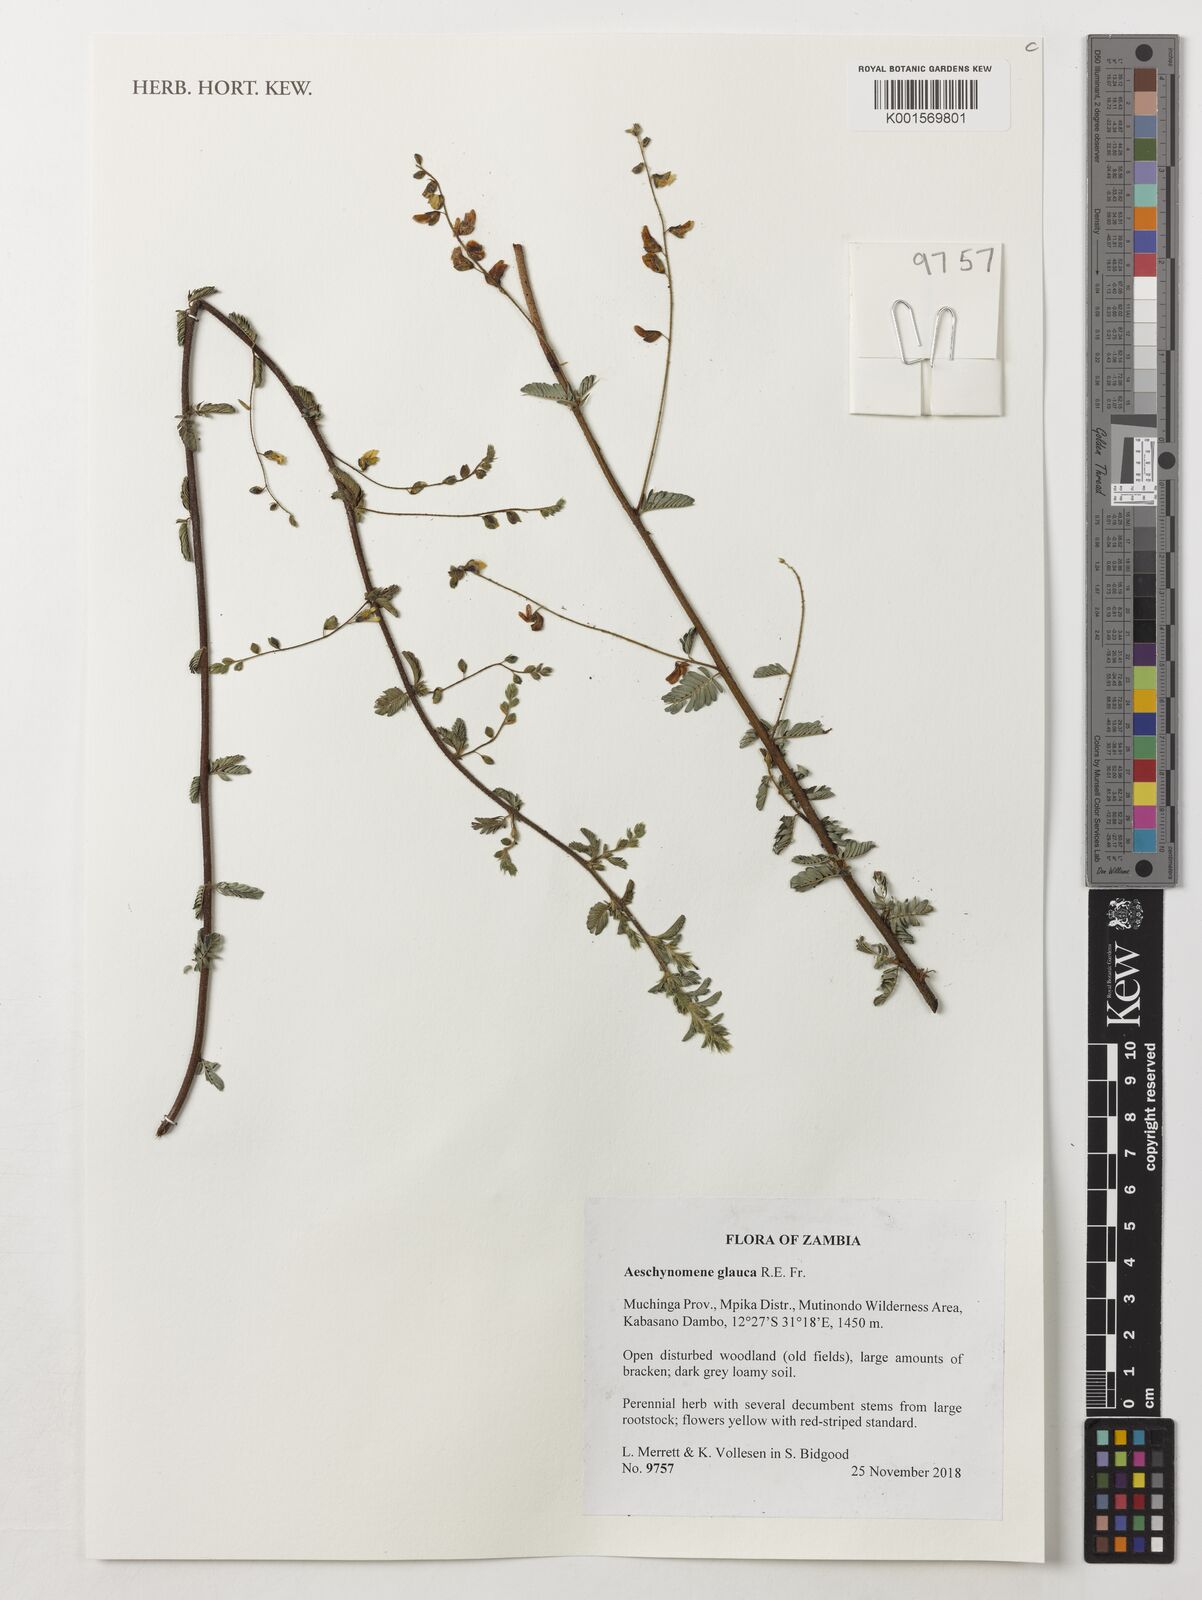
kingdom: Plantae
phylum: Tracheophyta
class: Magnoliopsida
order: Fabales
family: Fabaceae
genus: Aeschynomene
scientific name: Aeschynomene glauca
